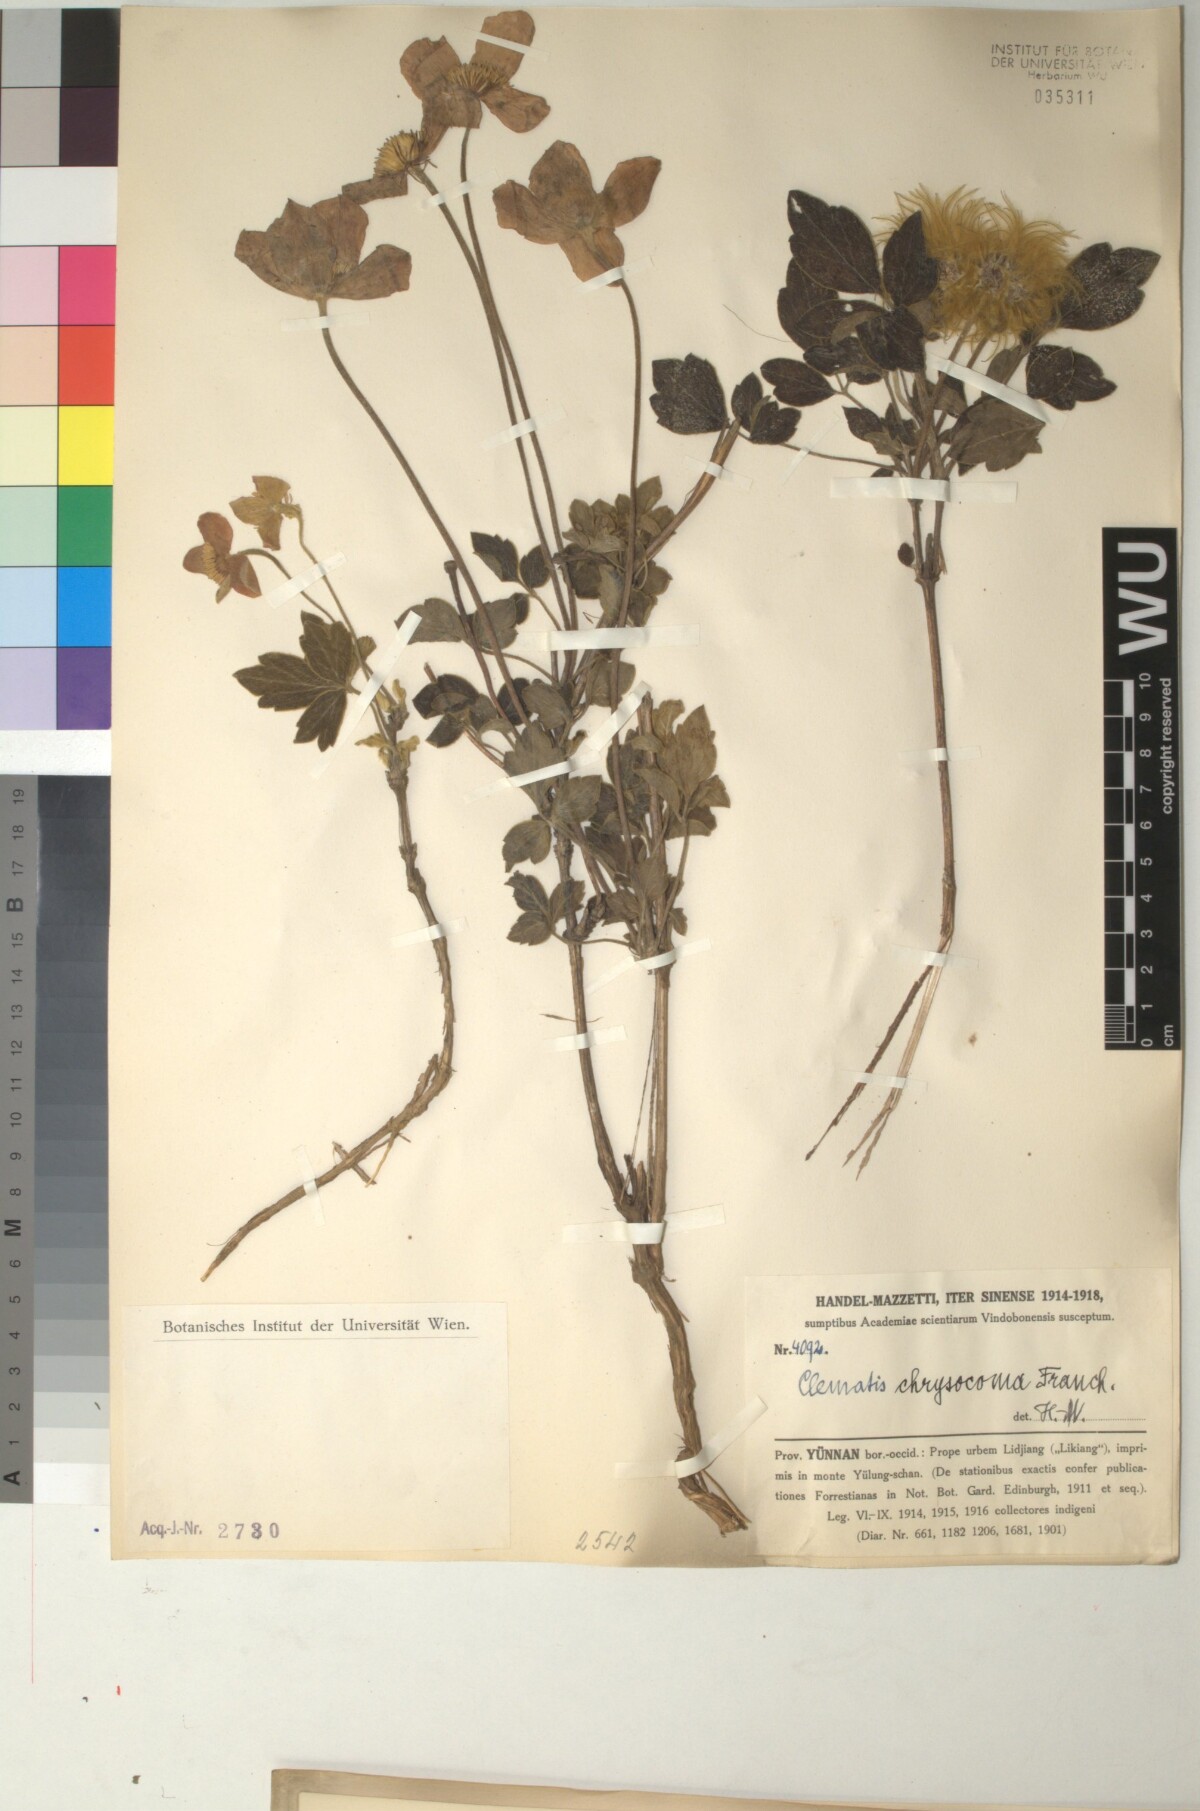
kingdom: Plantae
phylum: Tracheophyta
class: Magnoliopsida
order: Ranunculales
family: Ranunculaceae
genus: Clematis
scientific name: Clematis chrysocoma
